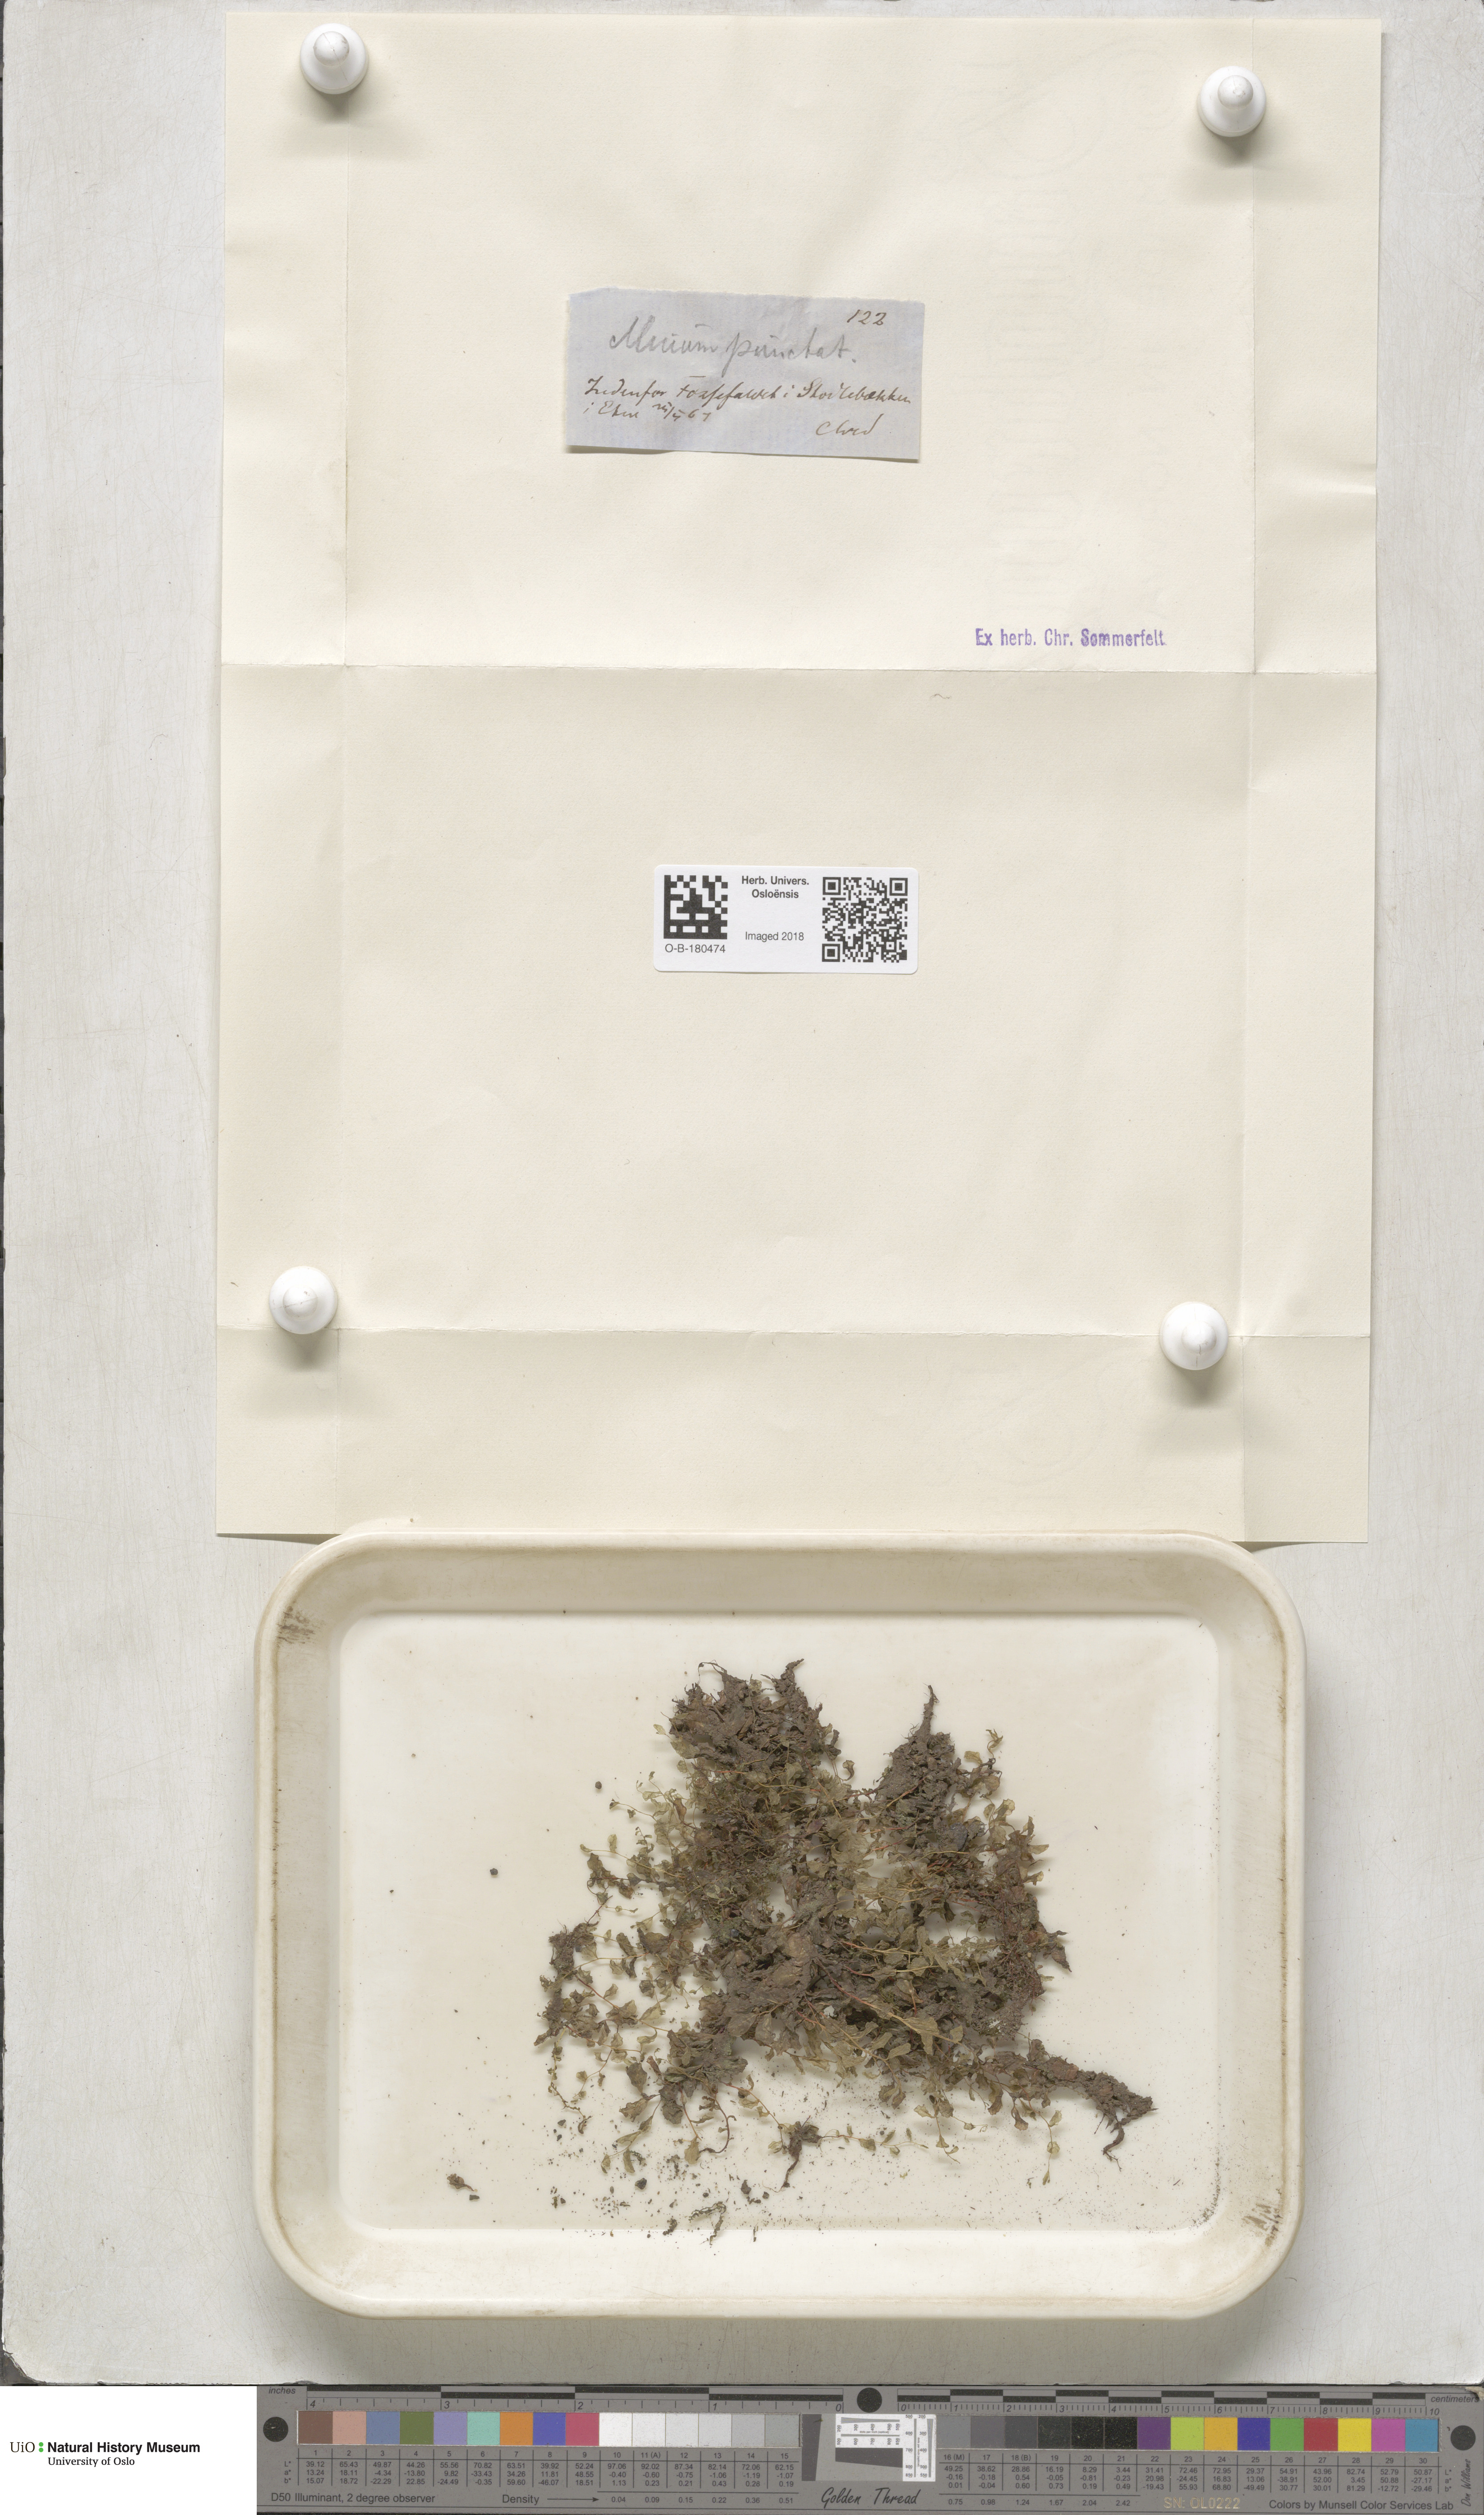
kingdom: Plantae
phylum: Bryophyta
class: Bryopsida
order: Bryales
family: Mniaceae
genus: Rhizomnium
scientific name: Rhizomnium punctatum
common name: Dotted leafy moss
